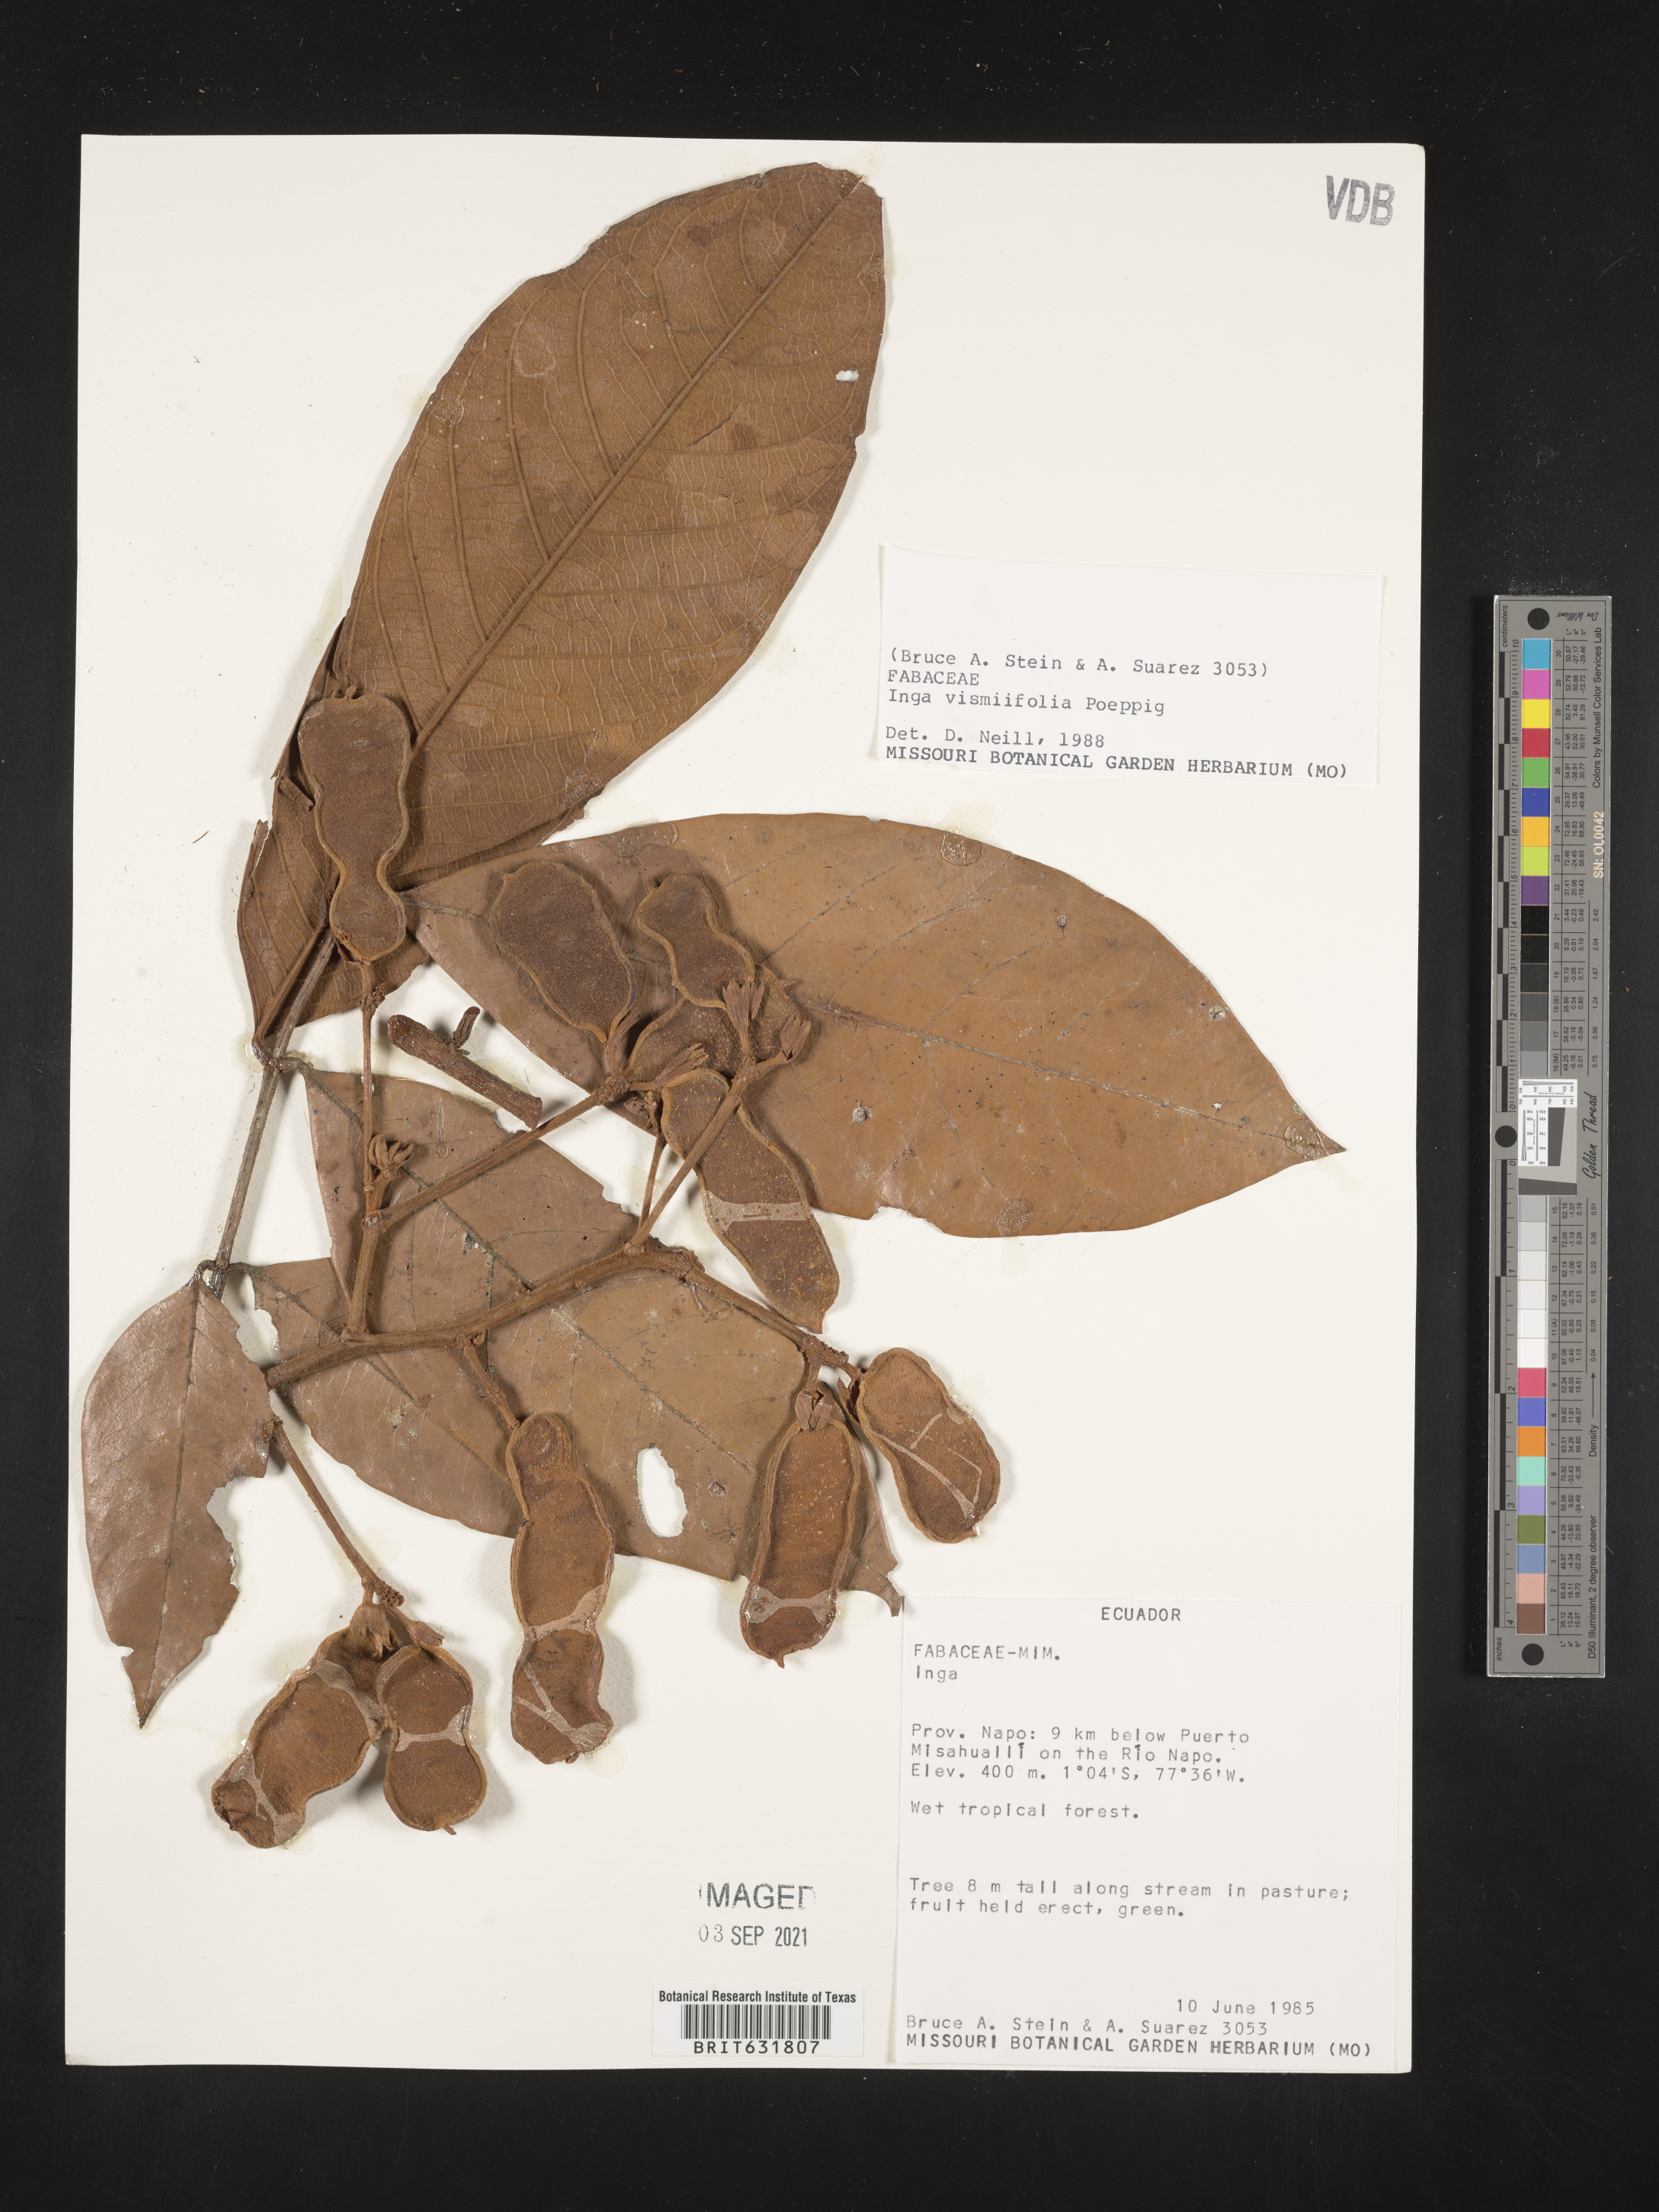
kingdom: Plantae
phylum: Tracheophyta
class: Magnoliopsida
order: Fabales
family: Fabaceae
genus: Inga
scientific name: Inga
